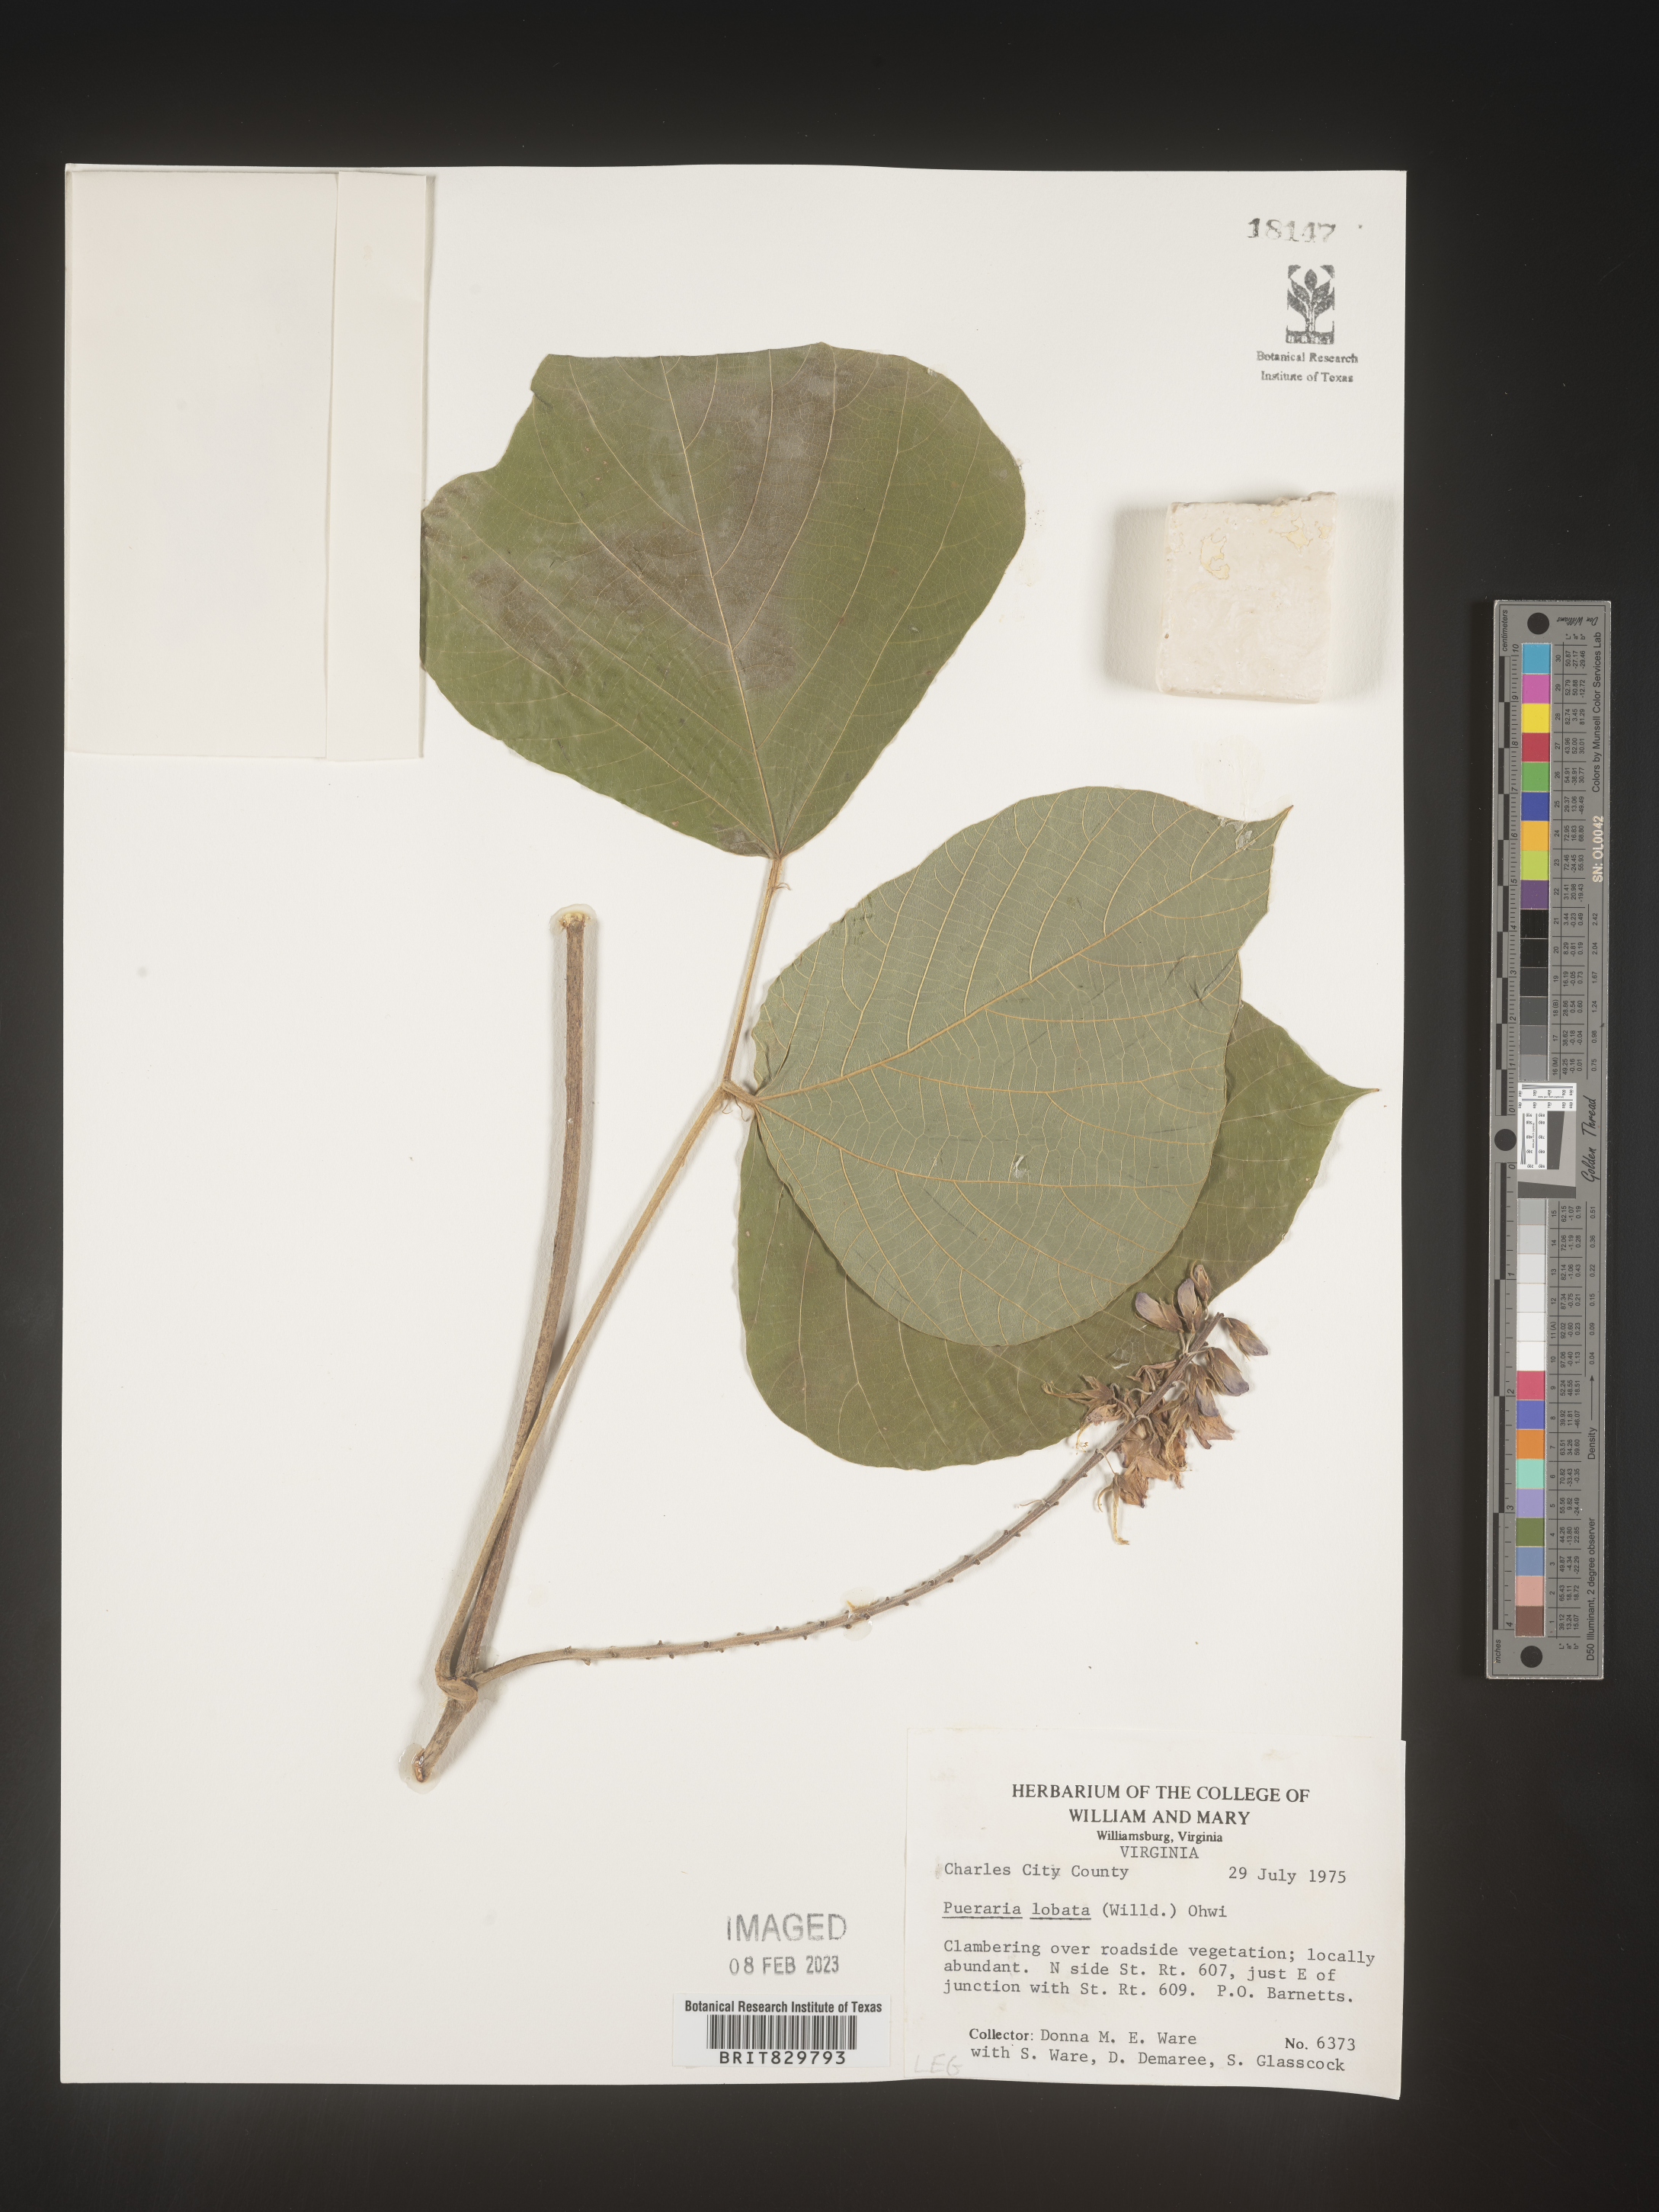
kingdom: Plantae
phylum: Tracheophyta
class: Magnoliopsida
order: Fabales
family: Fabaceae
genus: Pueraria
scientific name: Pueraria montana
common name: Kudzu
